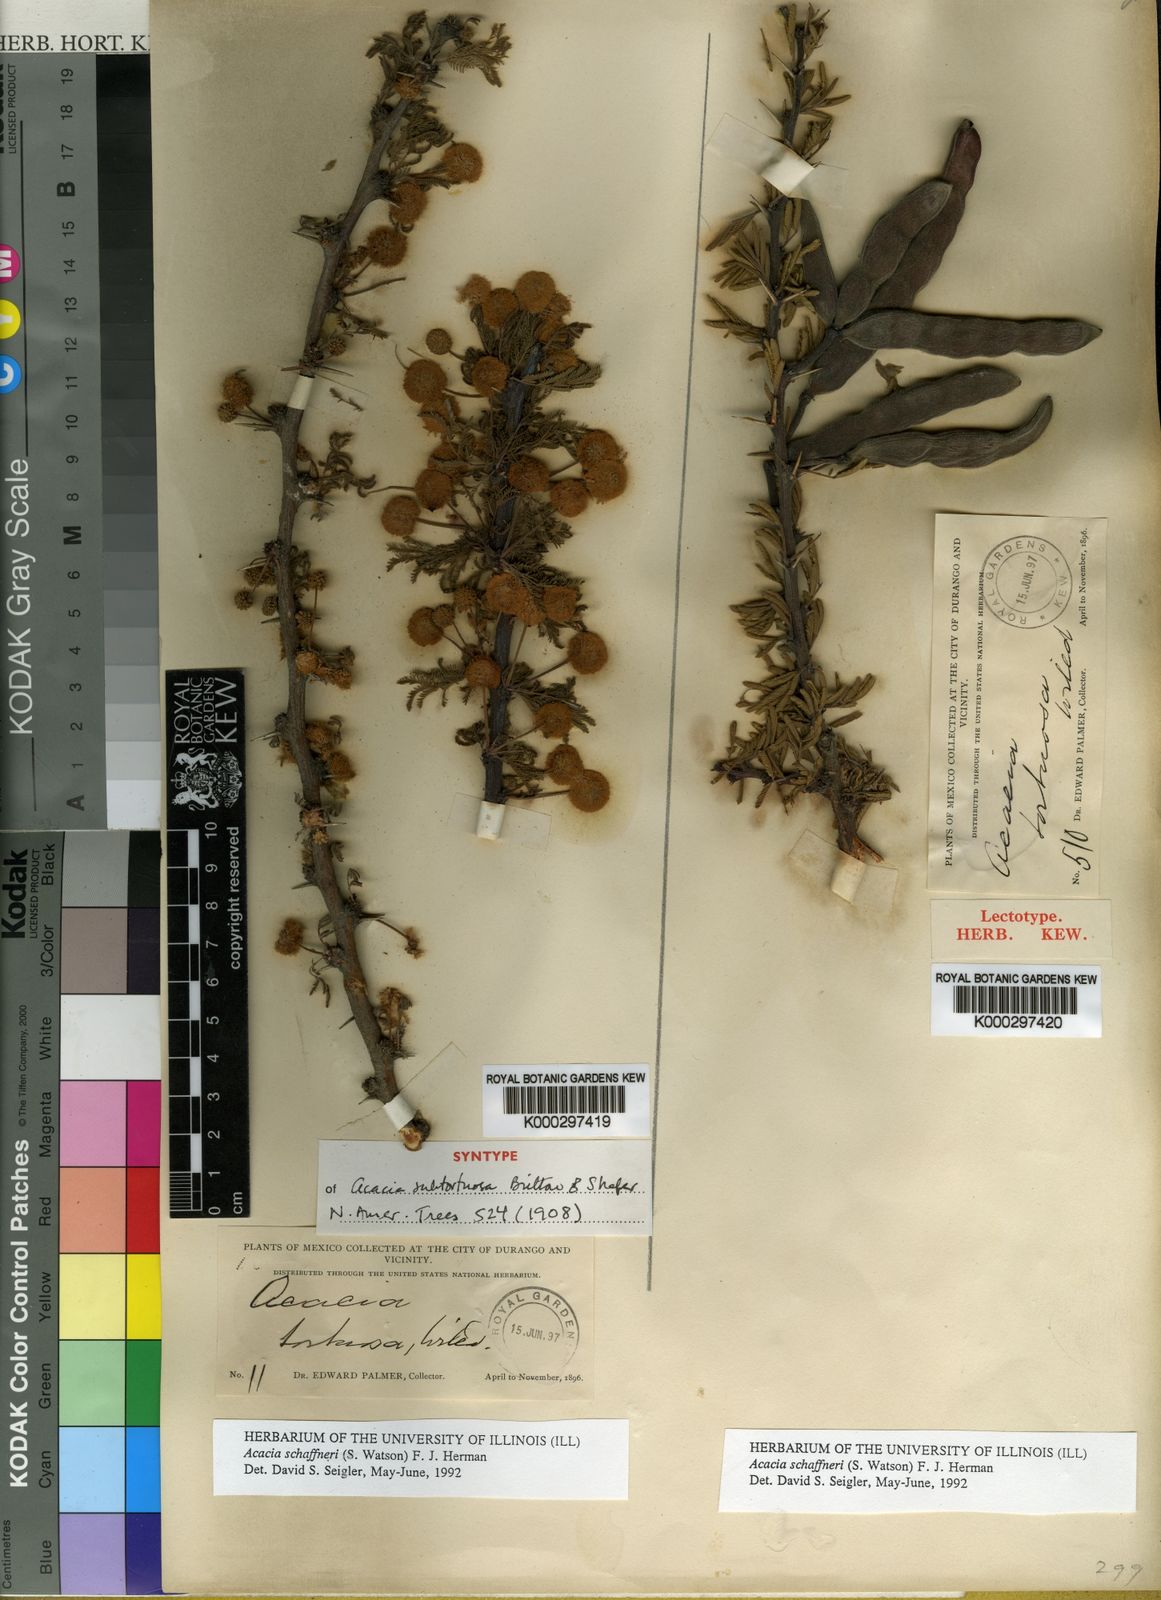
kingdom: Plantae
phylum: Tracheophyta
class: Magnoliopsida
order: Fabales
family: Fabaceae
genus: Vachellia
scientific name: Vachellia schaffneri
